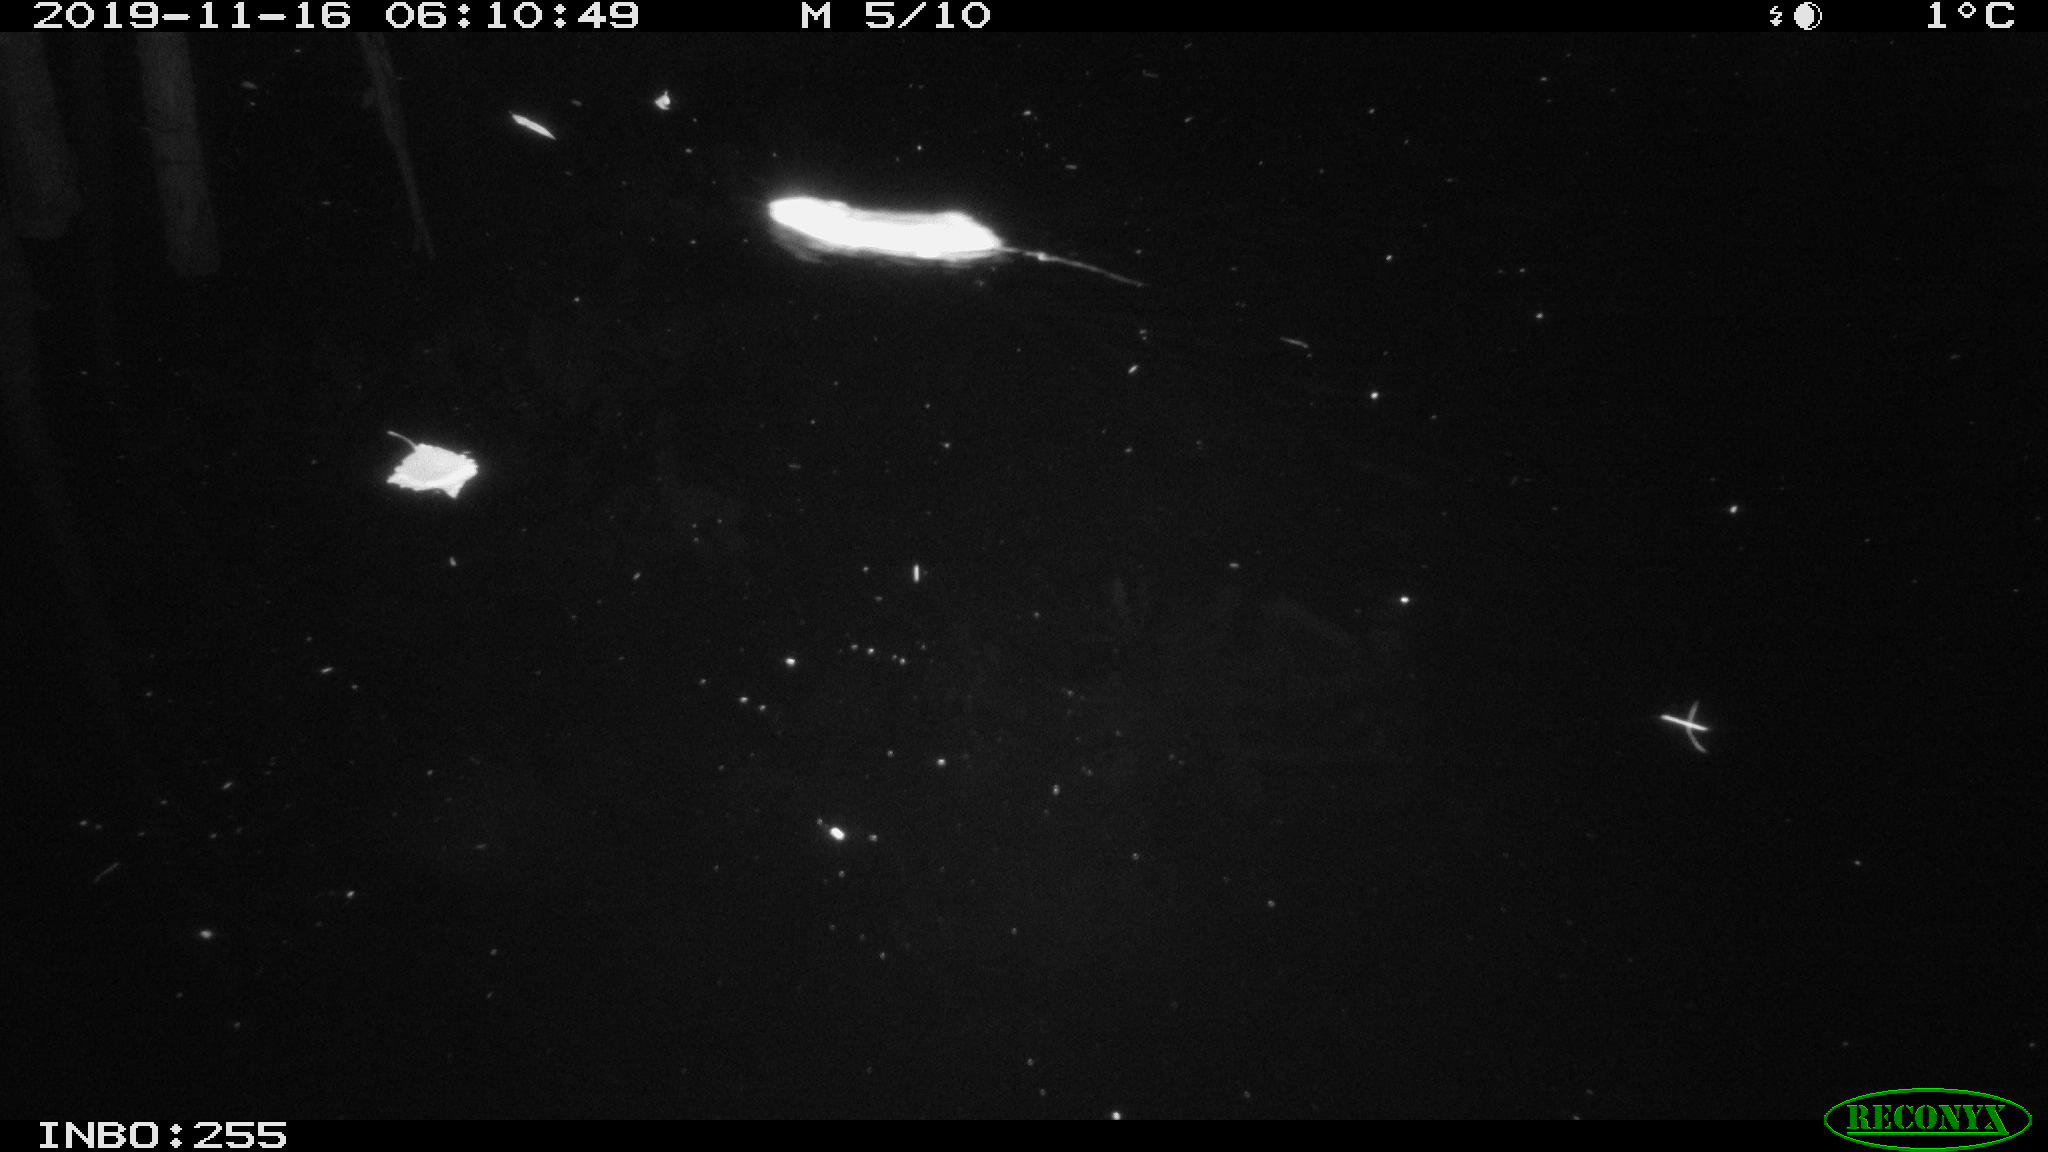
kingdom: Animalia
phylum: Chordata
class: Mammalia
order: Rodentia
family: Muridae
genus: Rattus
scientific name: Rattus norvegicus
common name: Brown rat
